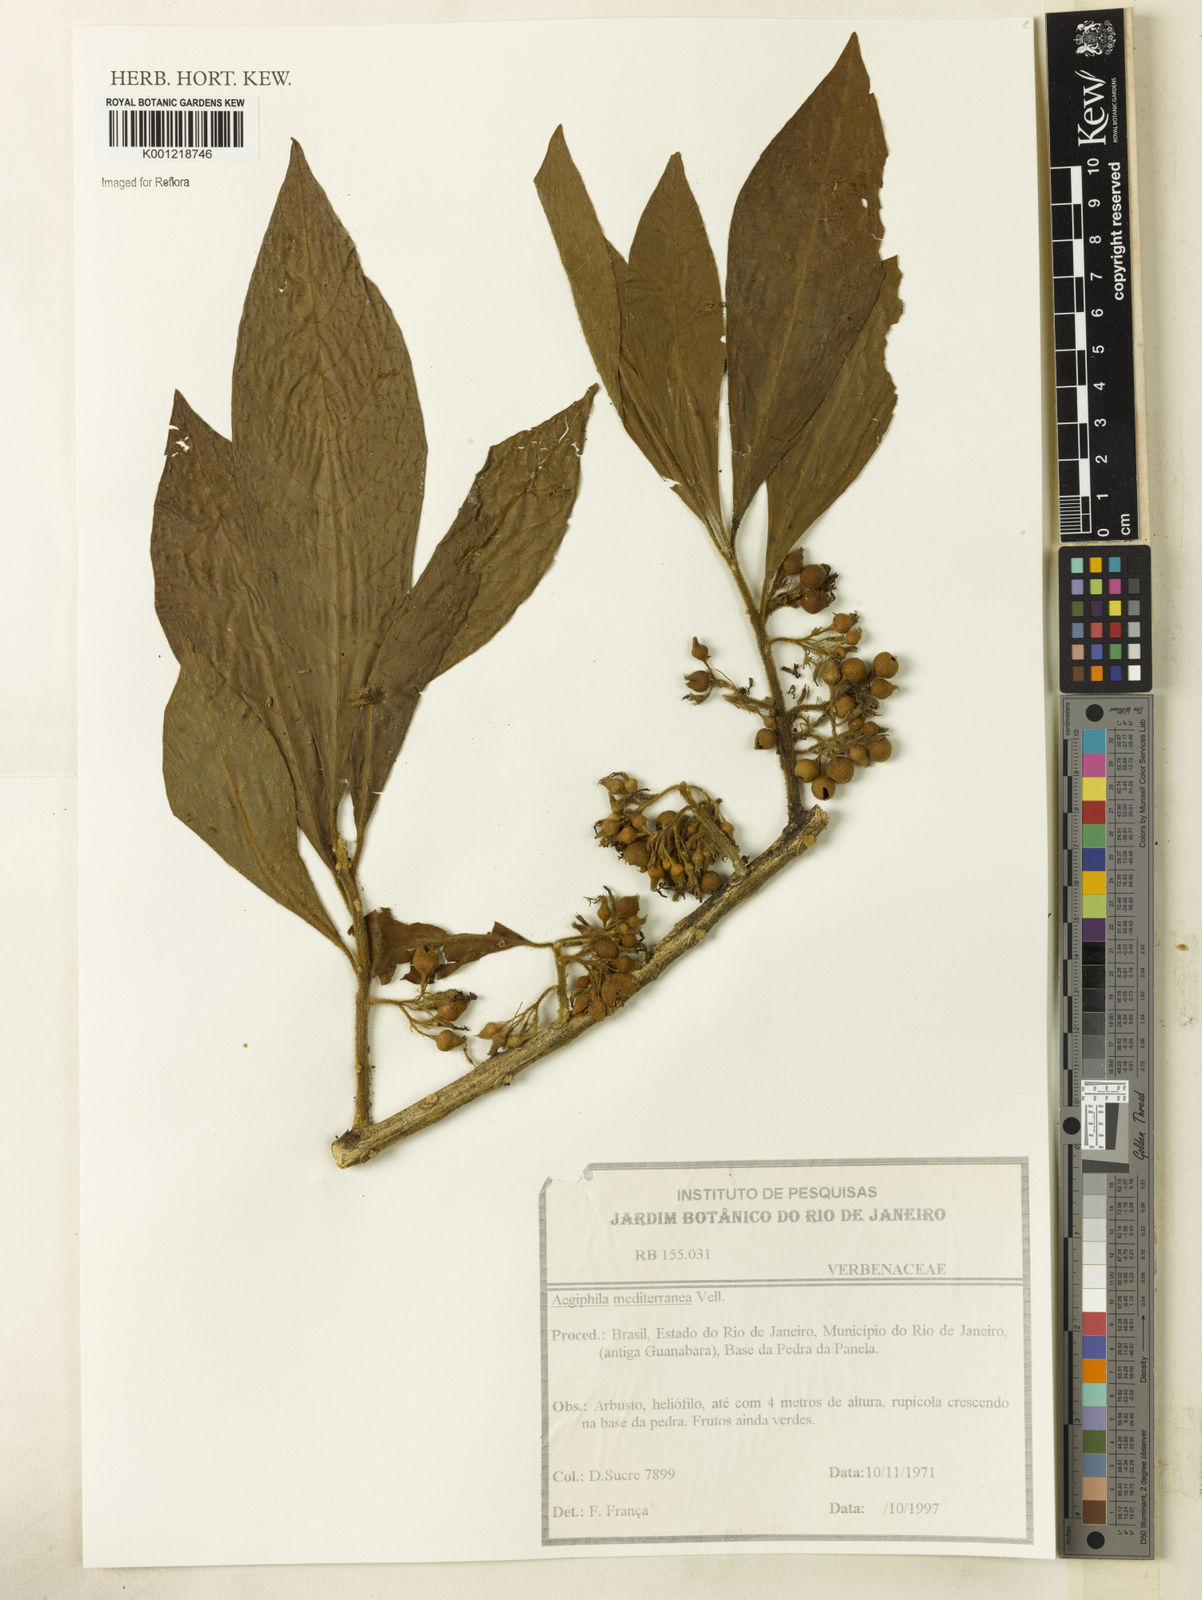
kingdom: Plantae
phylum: Tracheophyta
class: Magnoliopsida
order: Lamiales
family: Lamiaceae
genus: Aegiphila
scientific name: Aegiphila mediterranea
